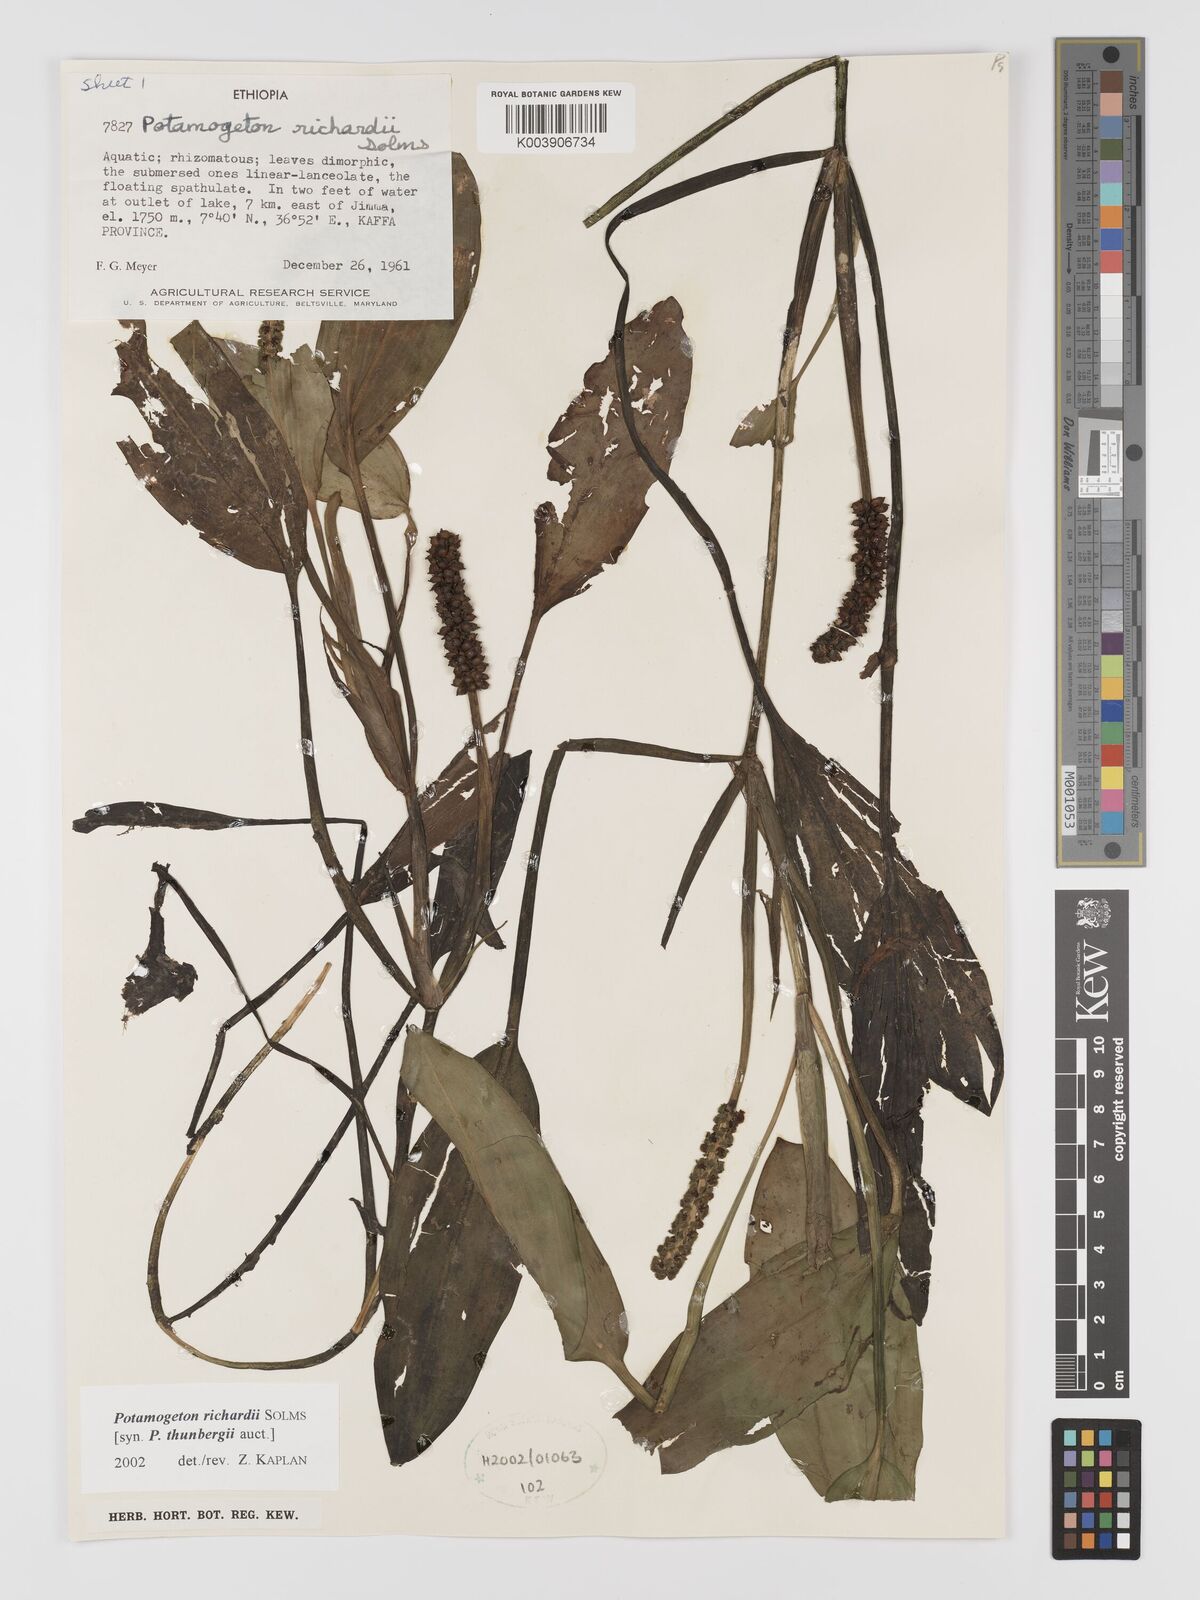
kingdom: Plantae
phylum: Tracheophyta
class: Liliopsida
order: Alismatales
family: Potamogetonaceae
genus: Potamogeton
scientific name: Potamogeton richardii
